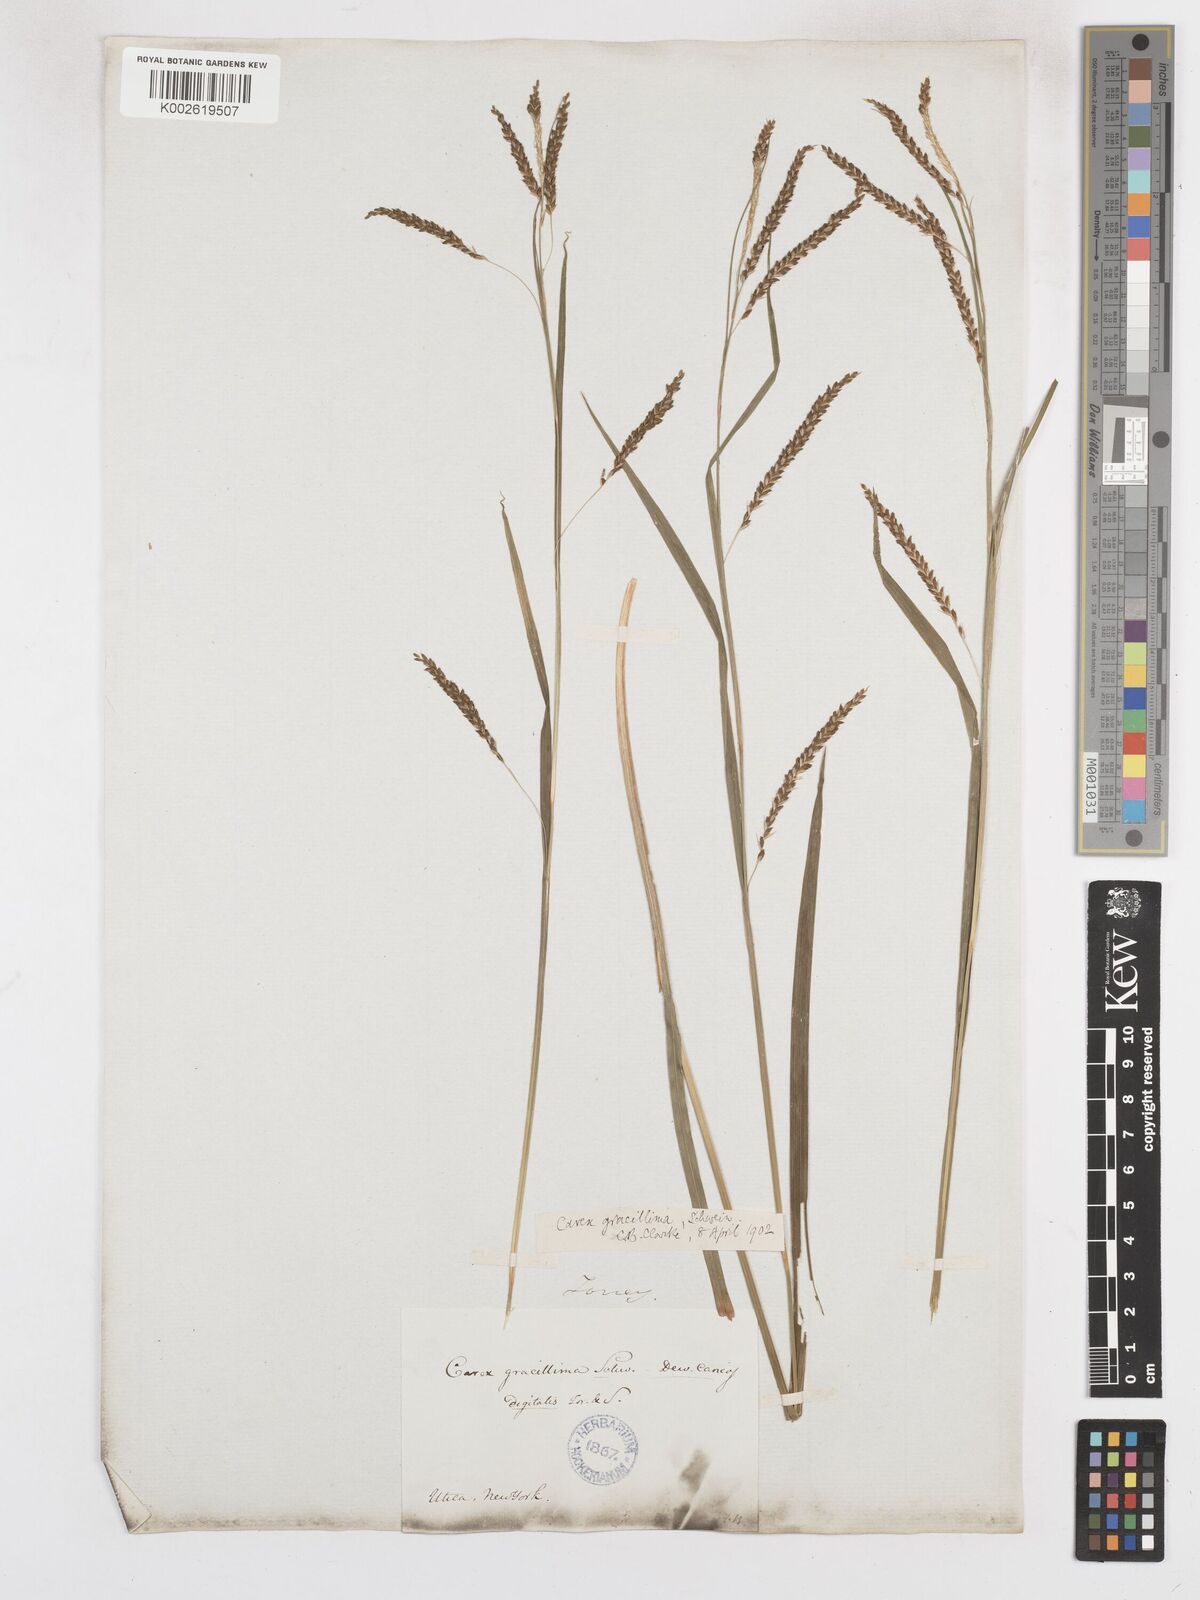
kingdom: Plantae
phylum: Tracheophyta
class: Liliopsida
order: Poales
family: Cyperaceae
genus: Carex
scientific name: Carex gracillima
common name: Graceful sedge
